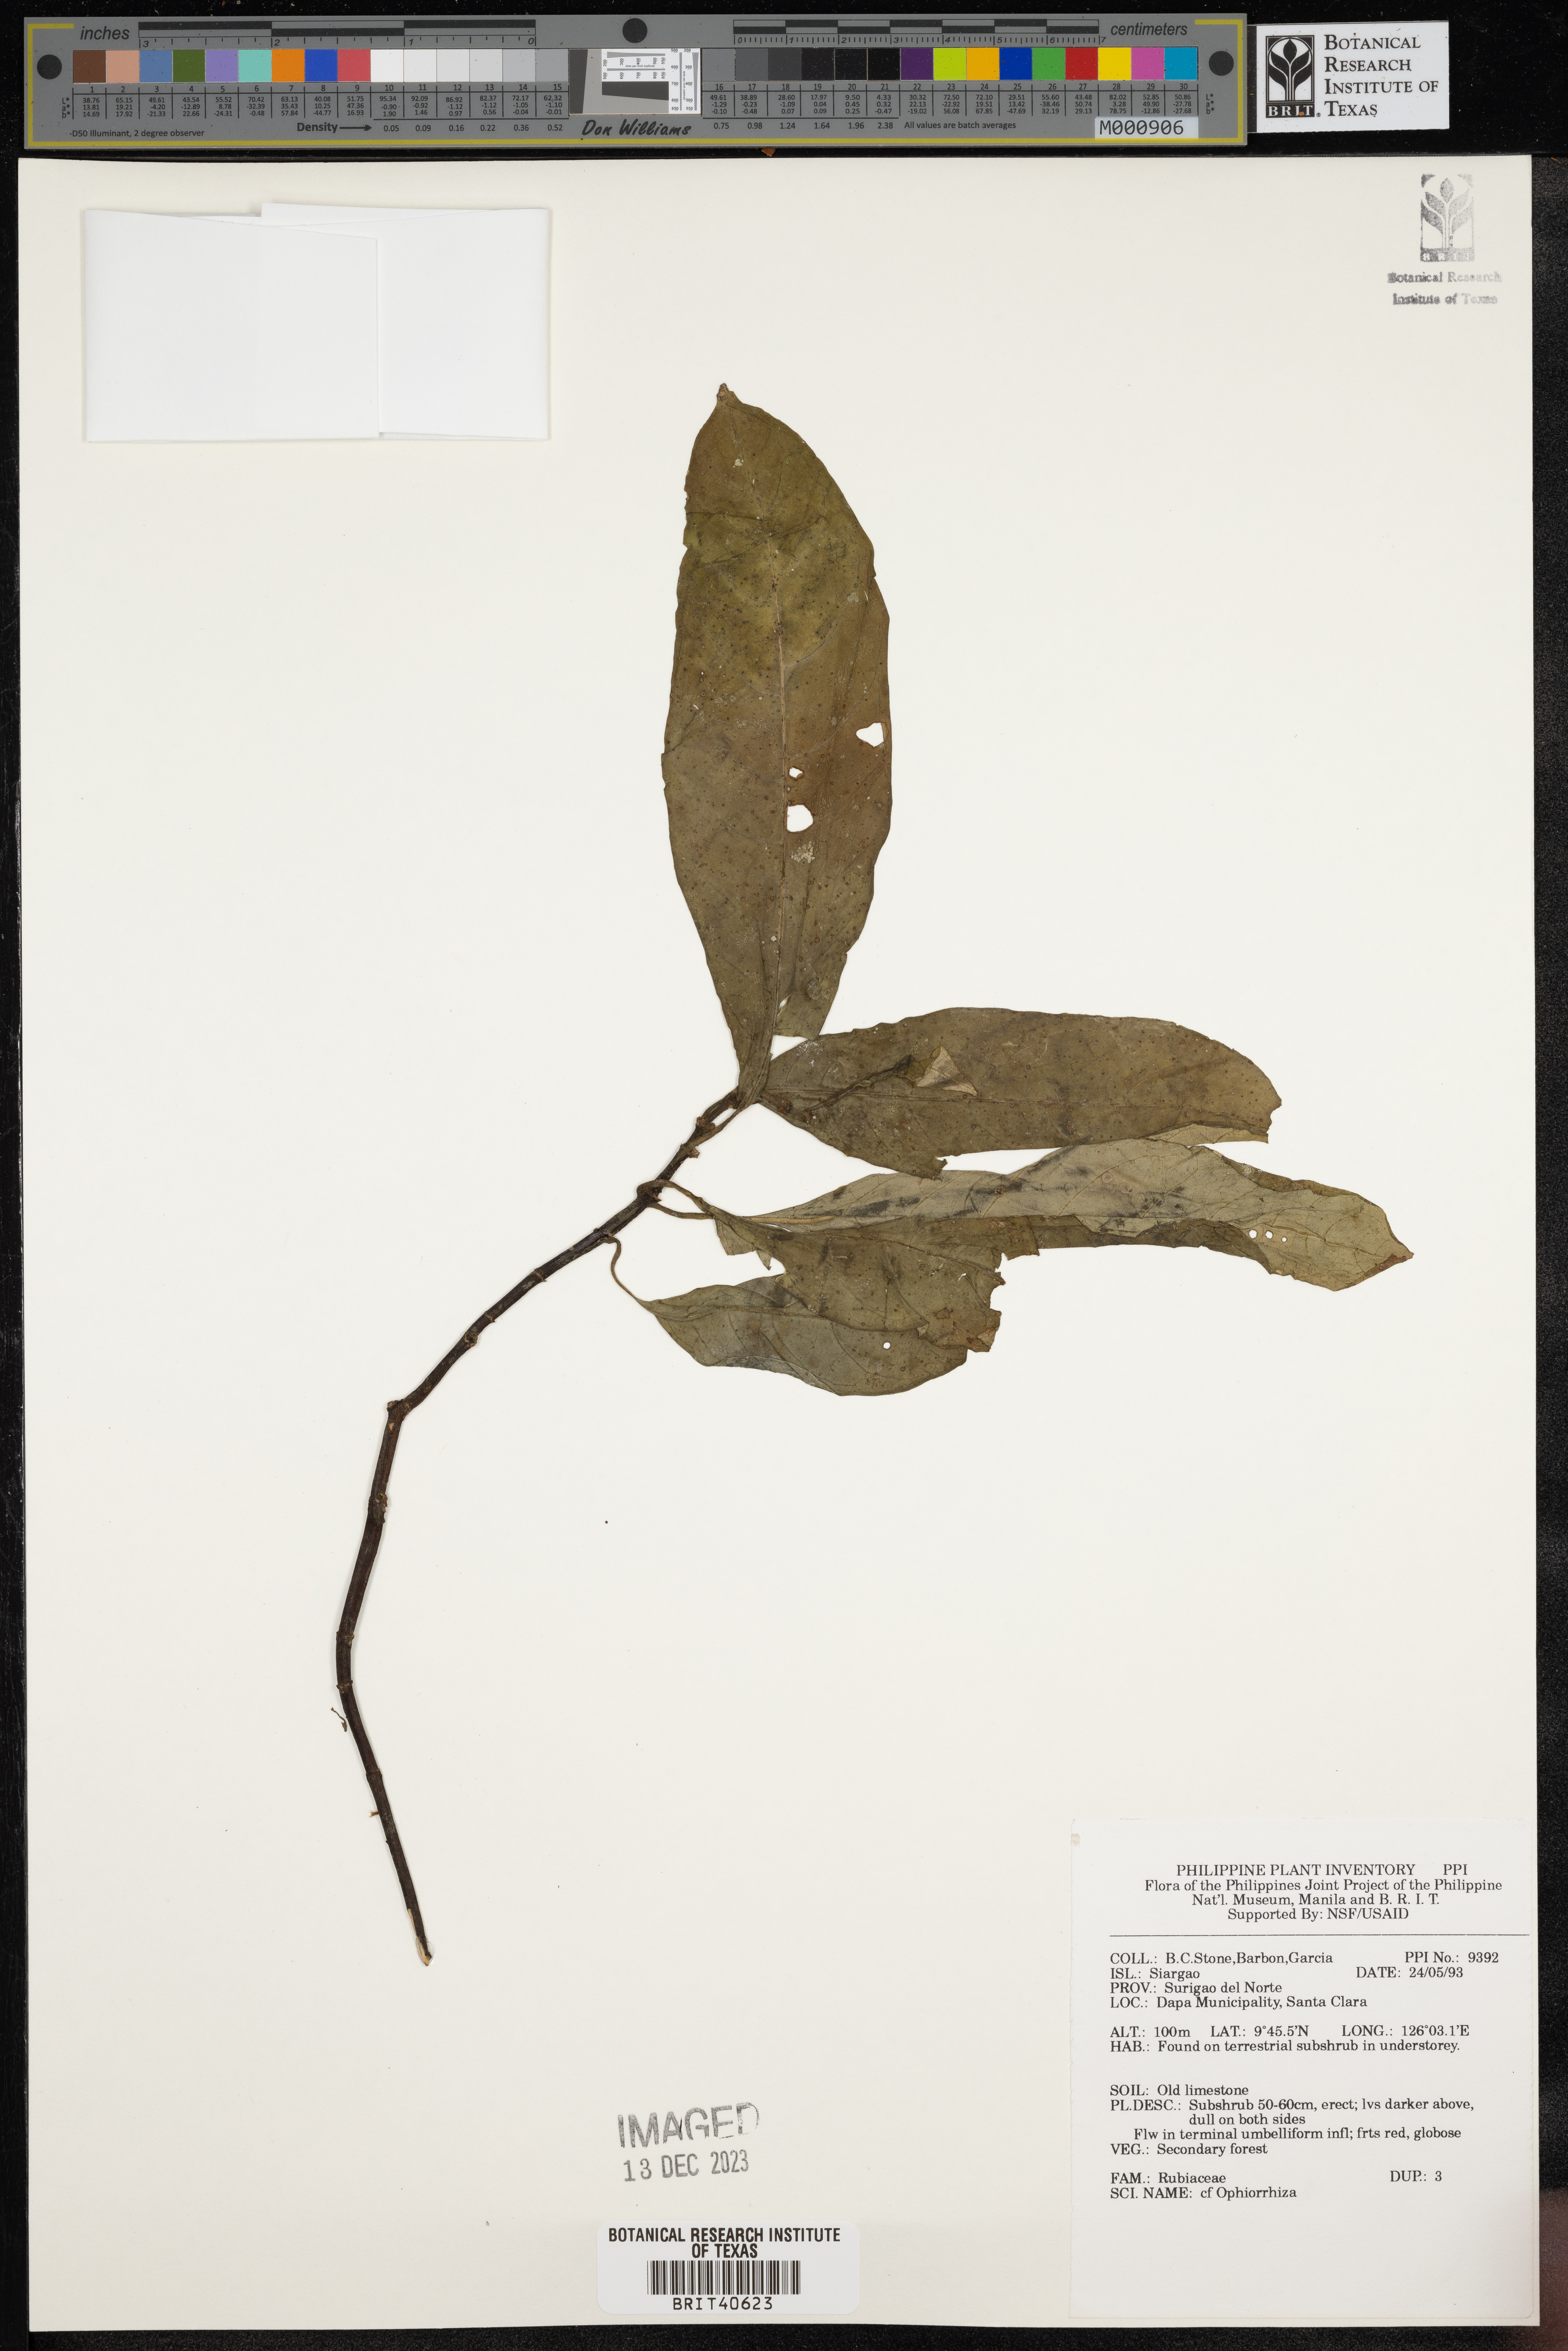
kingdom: Plantae
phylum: Tracheophyta
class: Magnoliopsida
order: Gentianales
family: Rubiaceae
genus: Ophiorrhiza
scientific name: Ophiorrhiza
